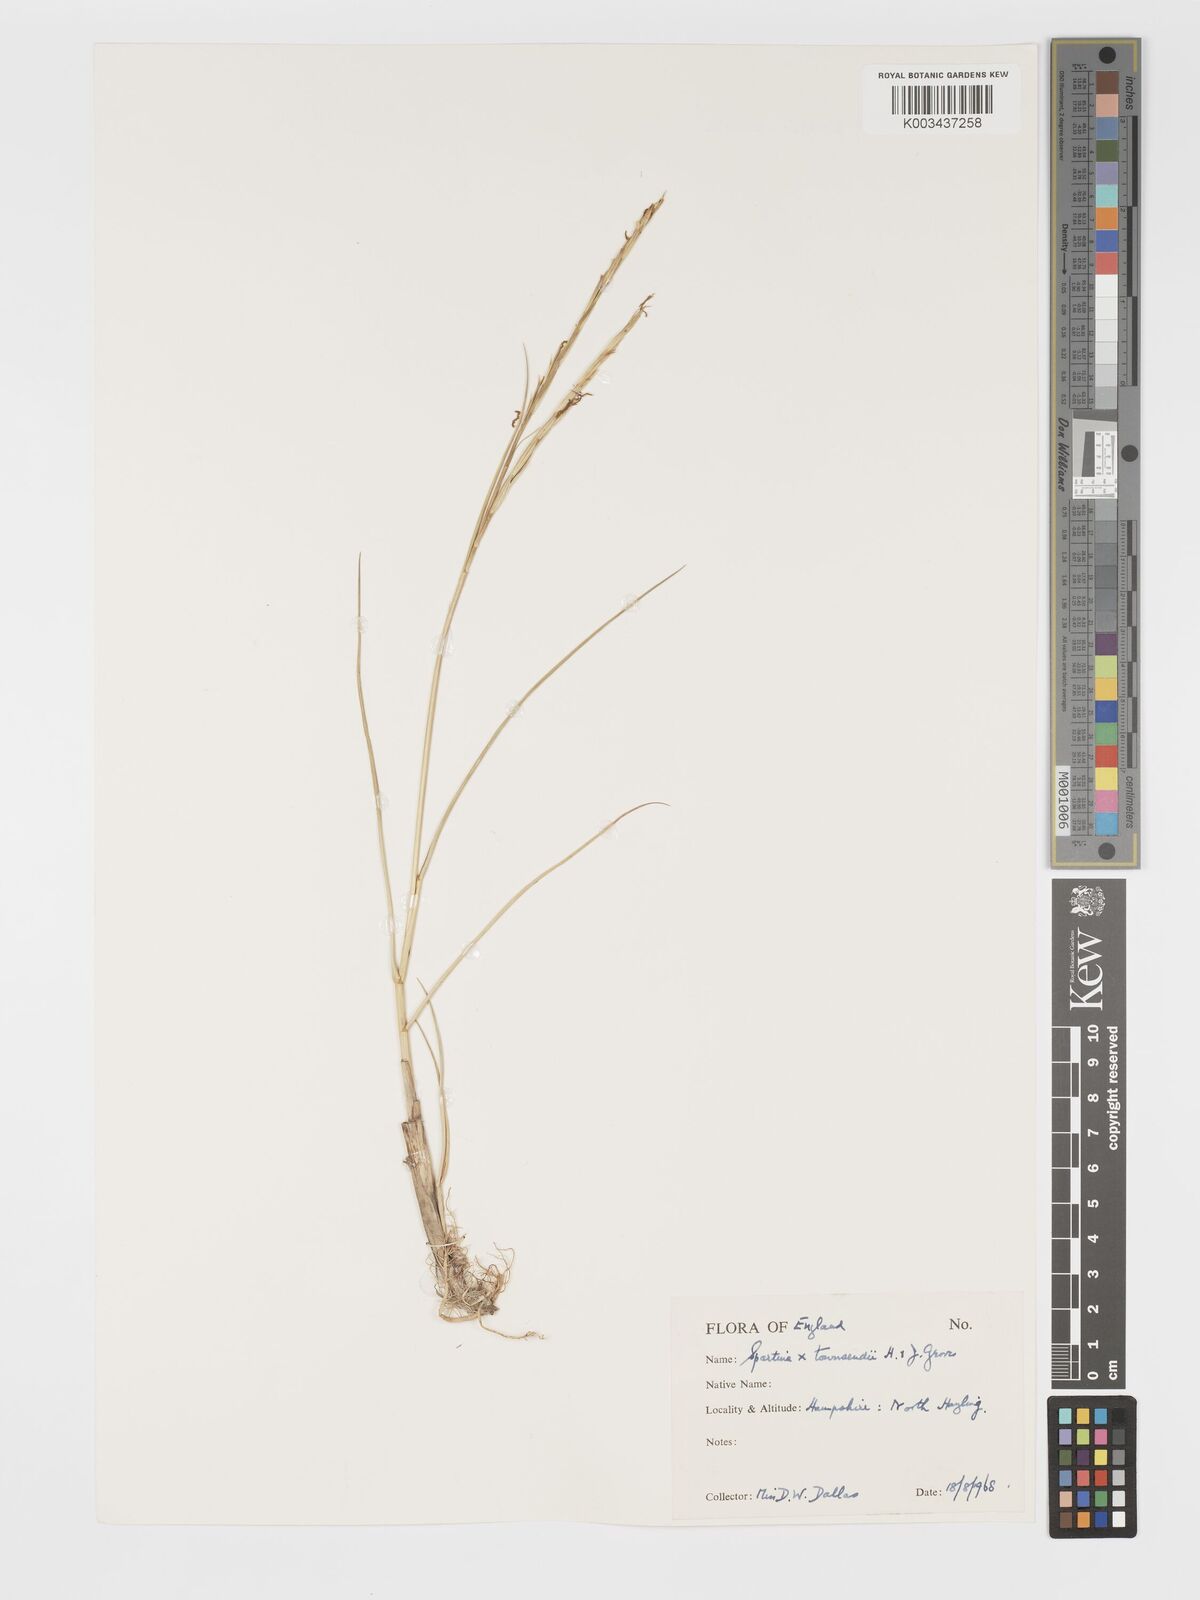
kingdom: Plantae
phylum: Tracheophyta
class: Liliopsida
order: Poales
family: Poaceae
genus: Sporobolus
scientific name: Sporobolus townsendii
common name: Townsend's cordgrass
